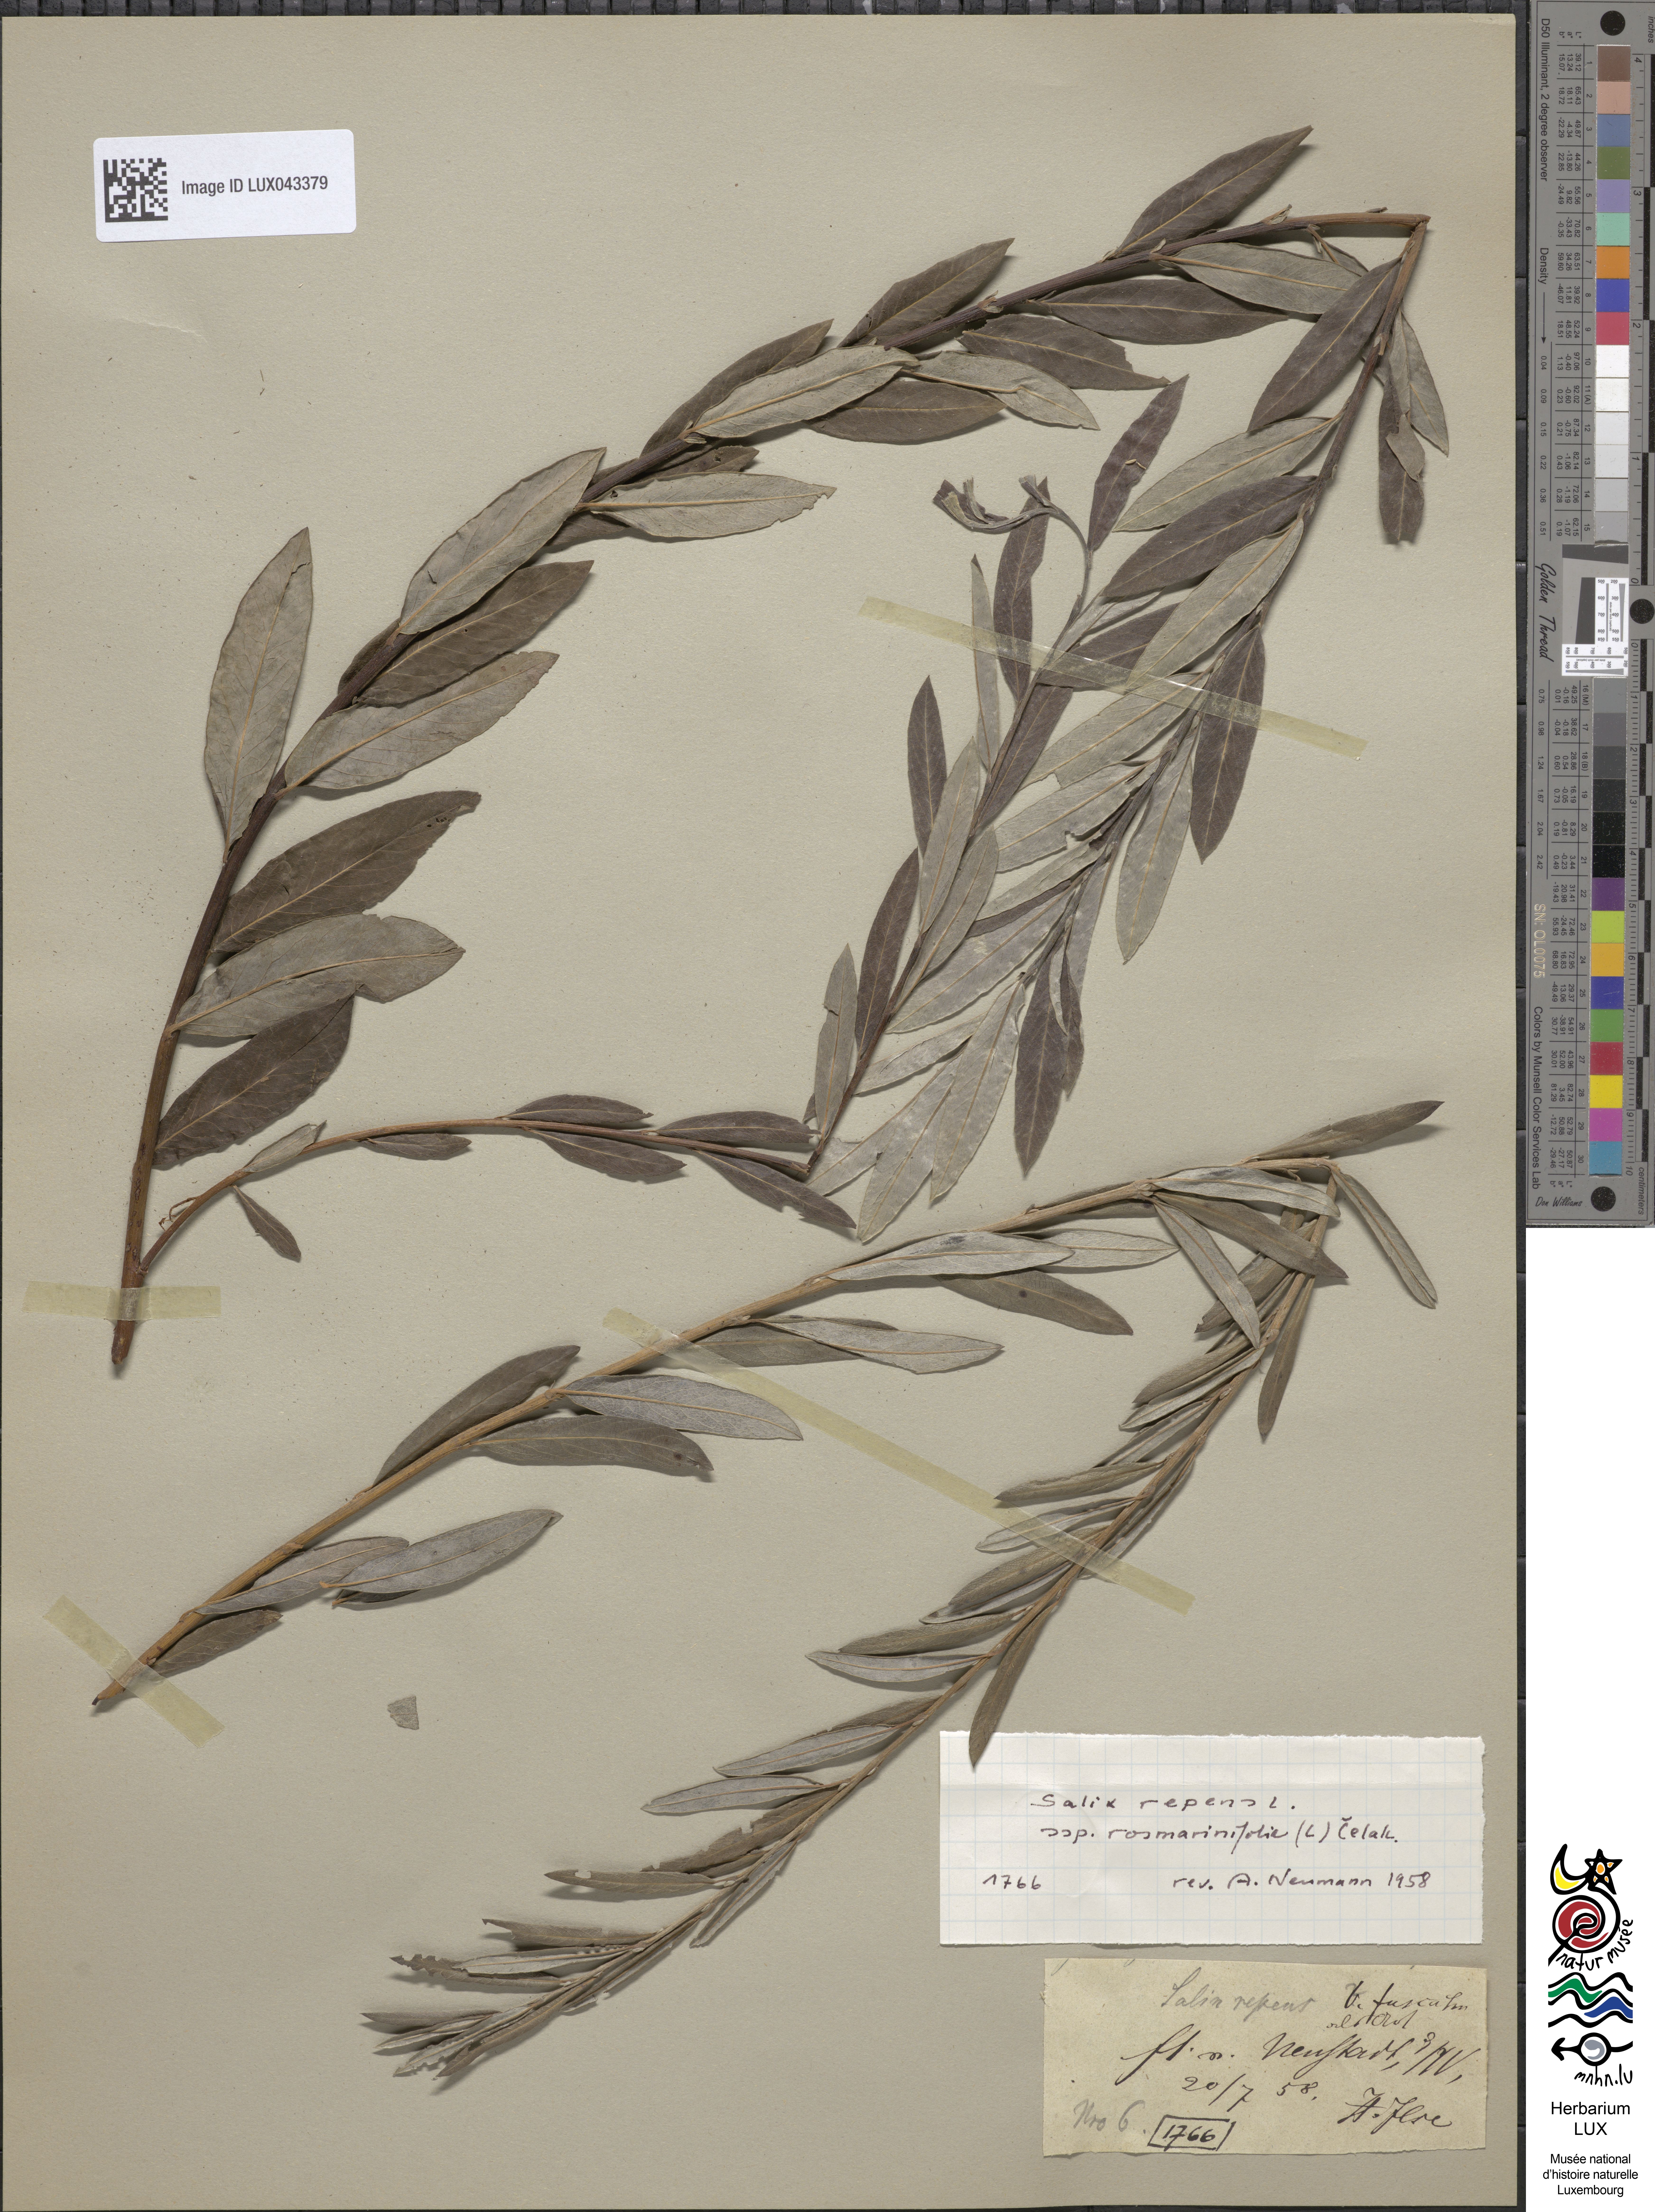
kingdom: Plantae
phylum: Tracheophyta
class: Magnoliopsida
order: Malpighiales
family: Salicaceae
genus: Salix
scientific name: Salix repens
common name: Creeping willow
